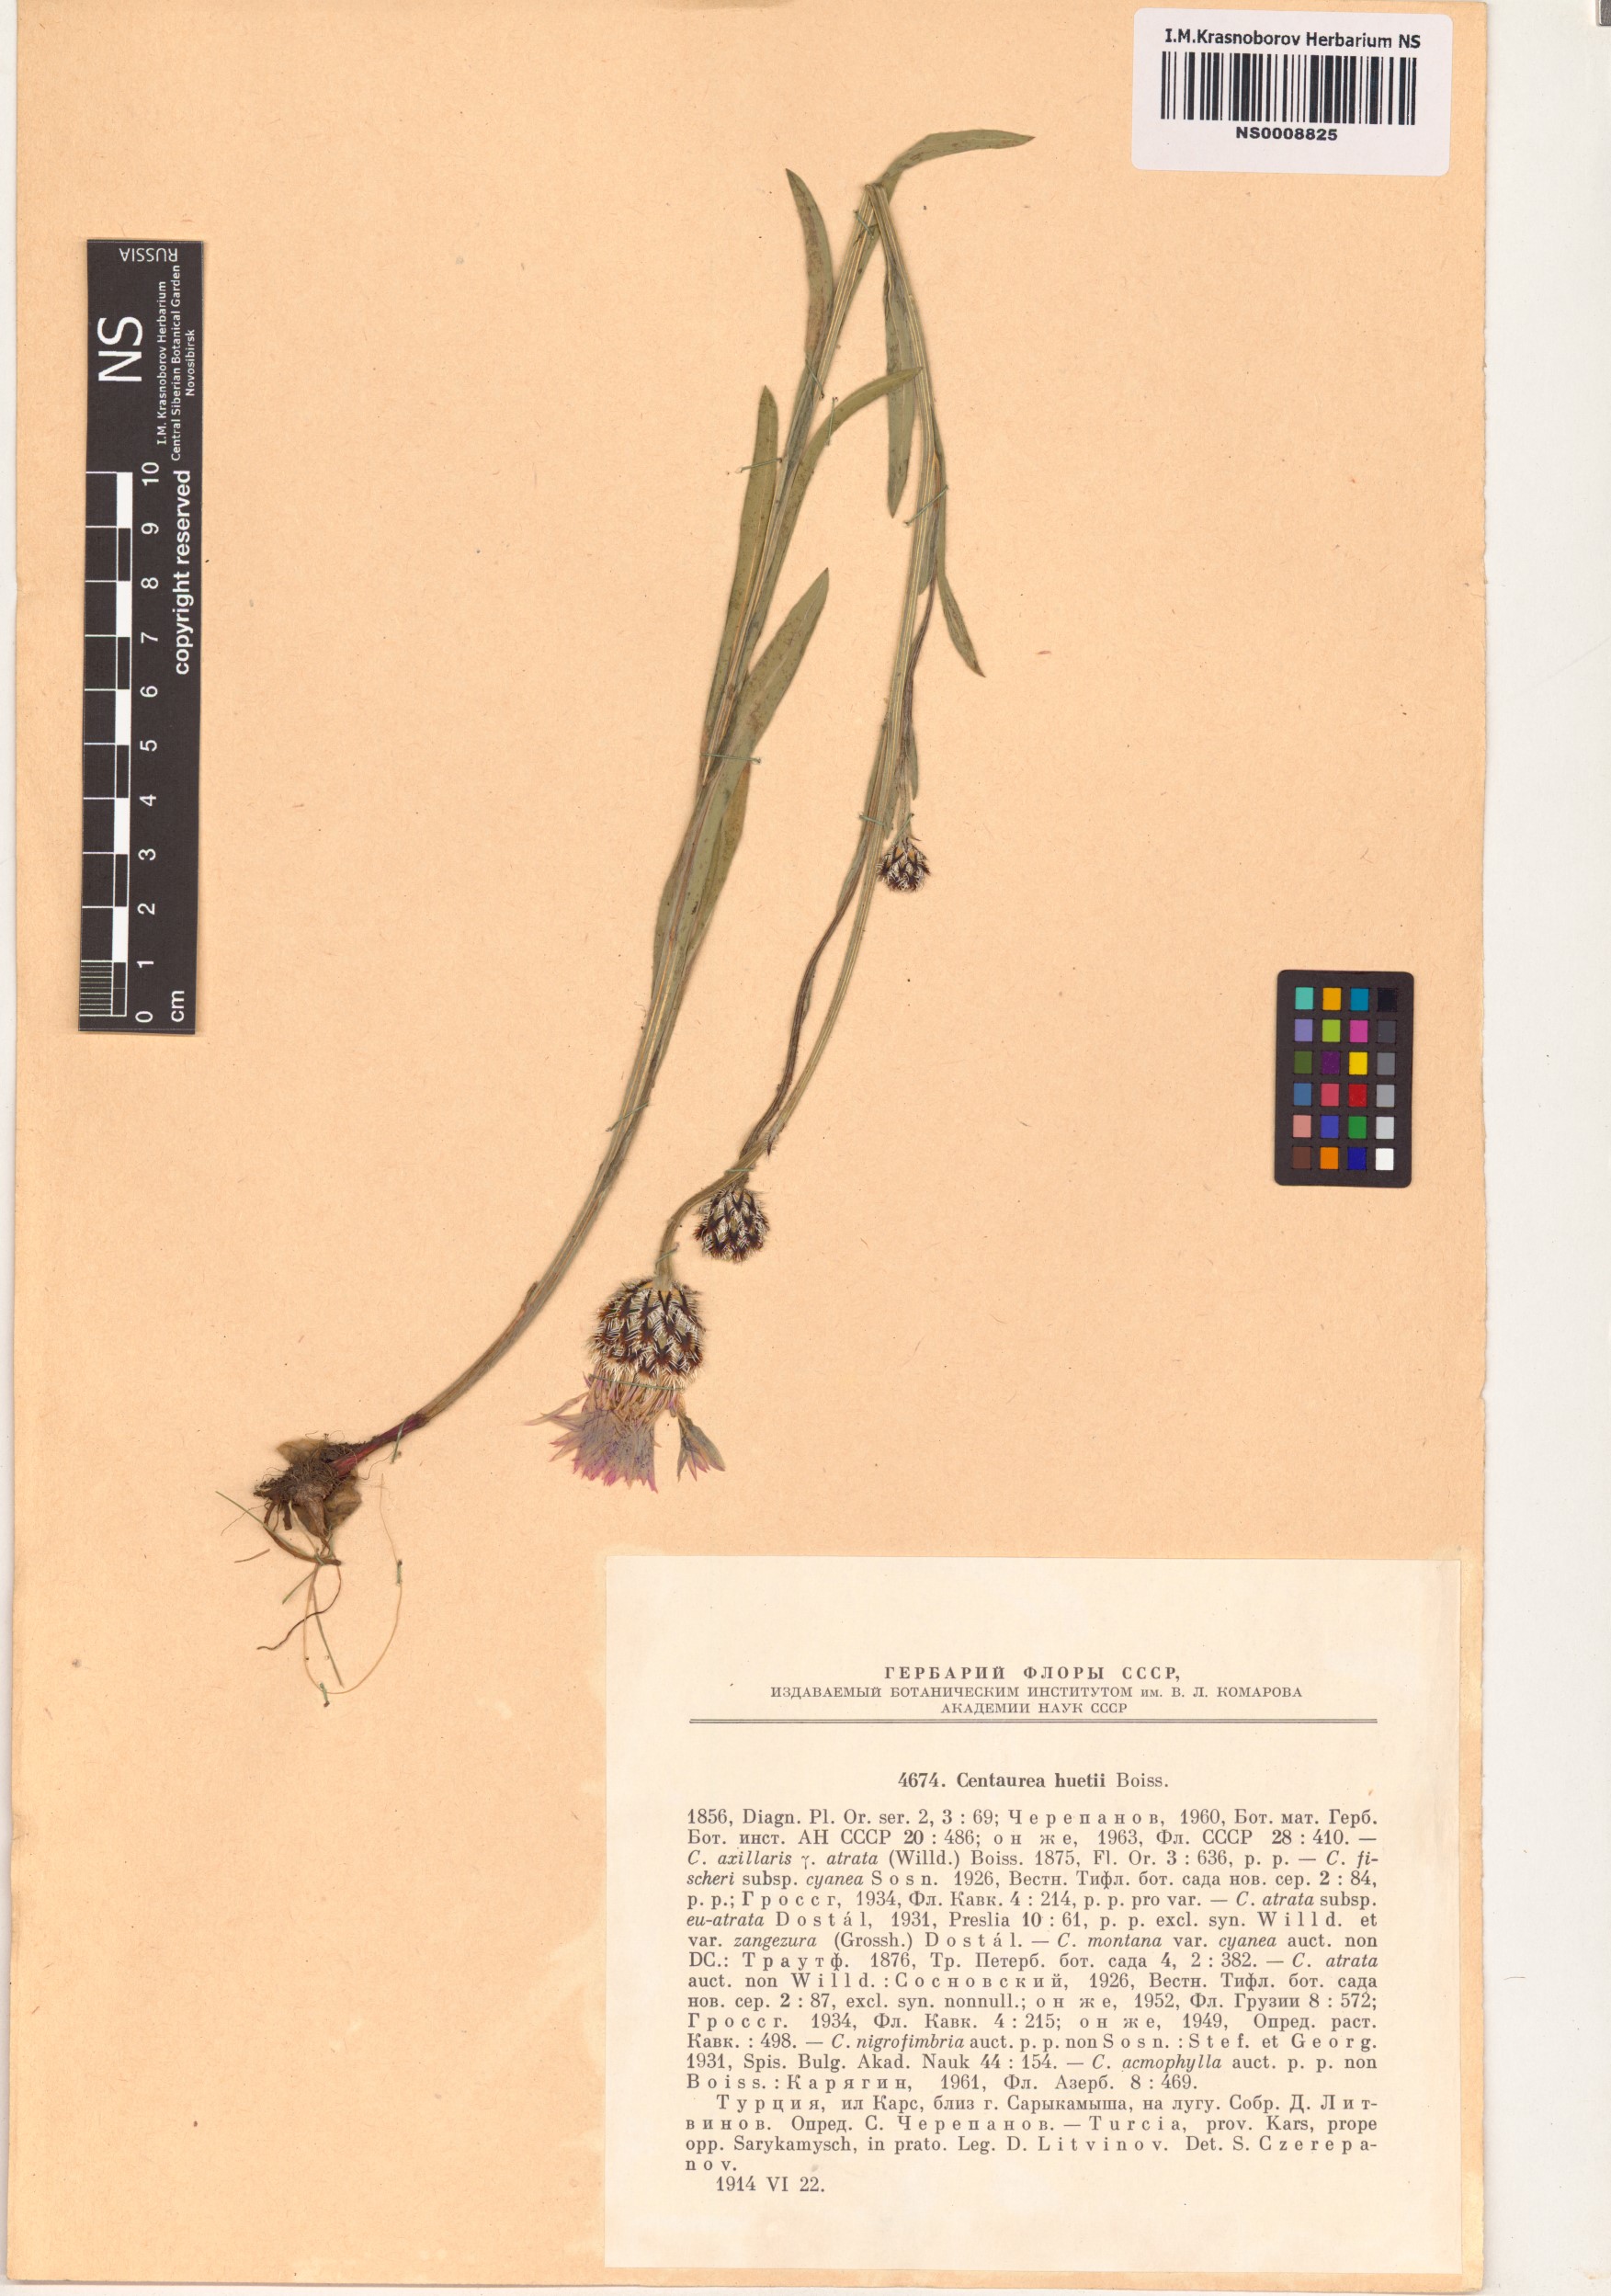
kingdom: Plantae
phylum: Tracheophyta
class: Magnoliopsida
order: Asterales
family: Asteraceae
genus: Centaurea
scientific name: Centaurea atrata
